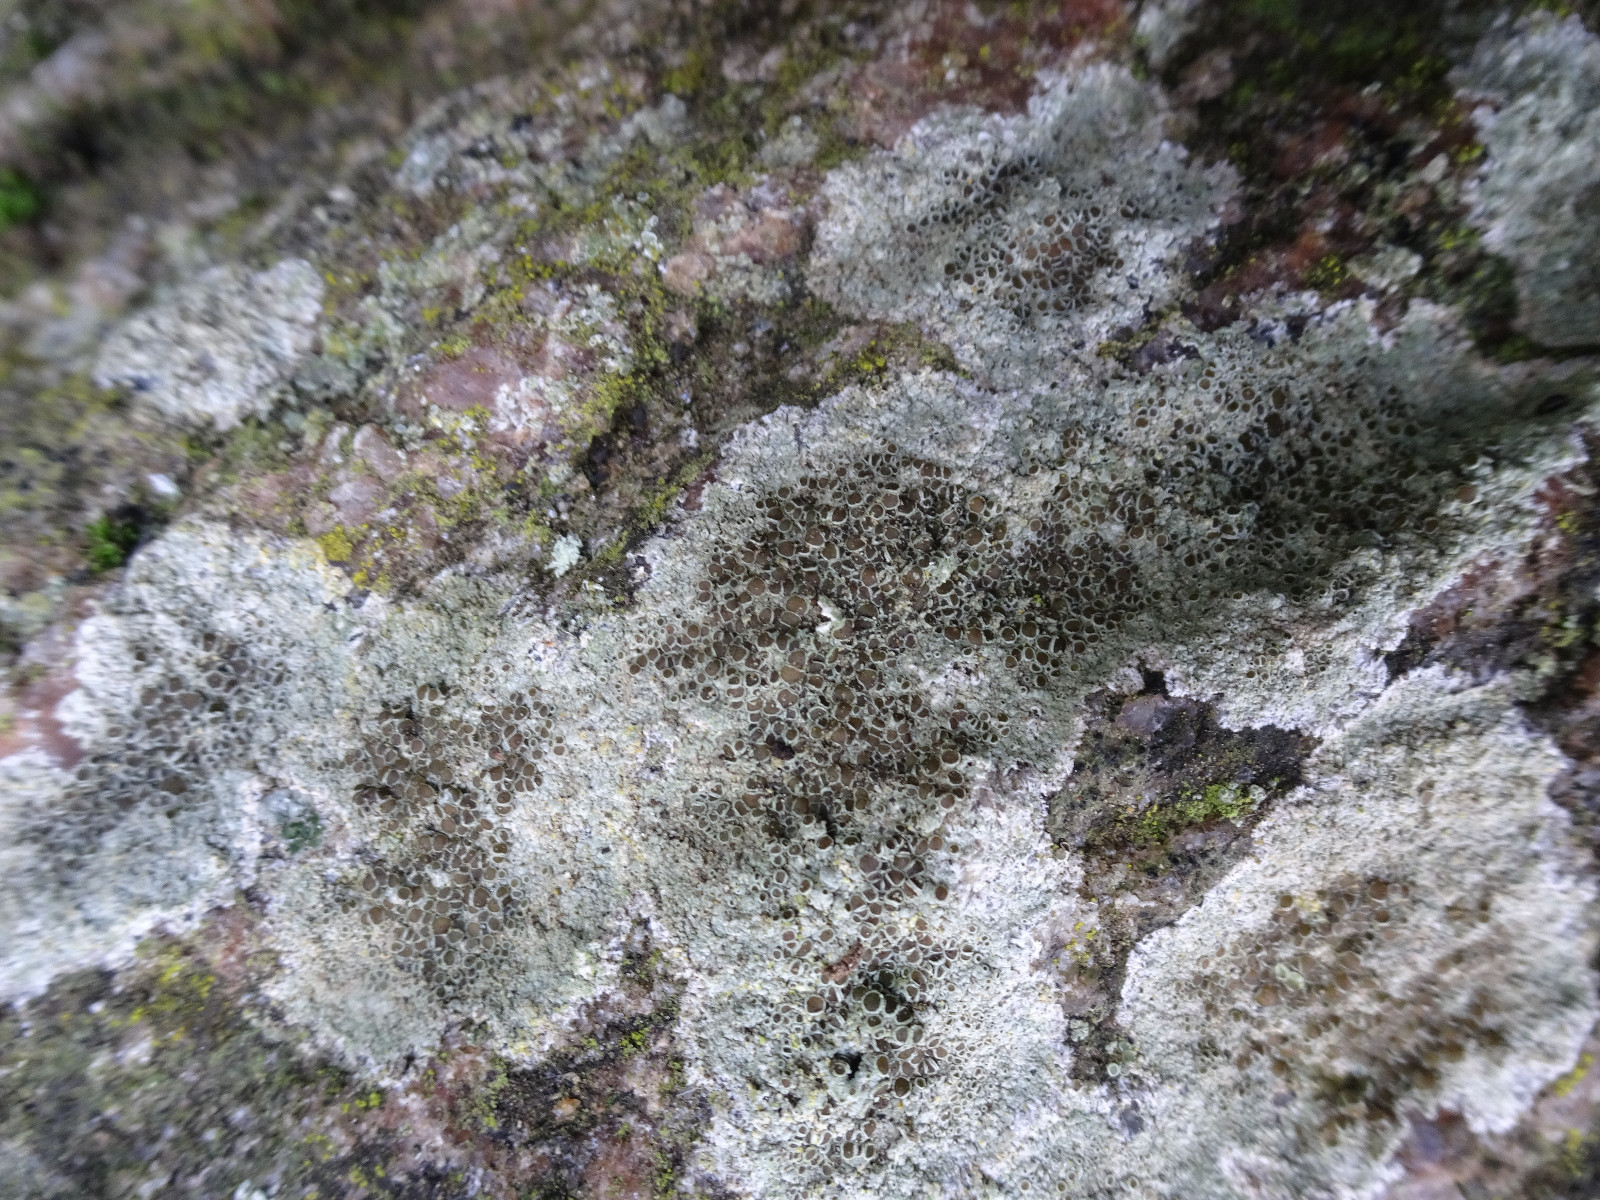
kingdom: Fungi
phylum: Ascomycota
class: Lecanoromycetes
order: Lecanorales
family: Lecanoraceae
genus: Lecanora
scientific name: Lecanora campestris
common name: mur-kantskivelav
